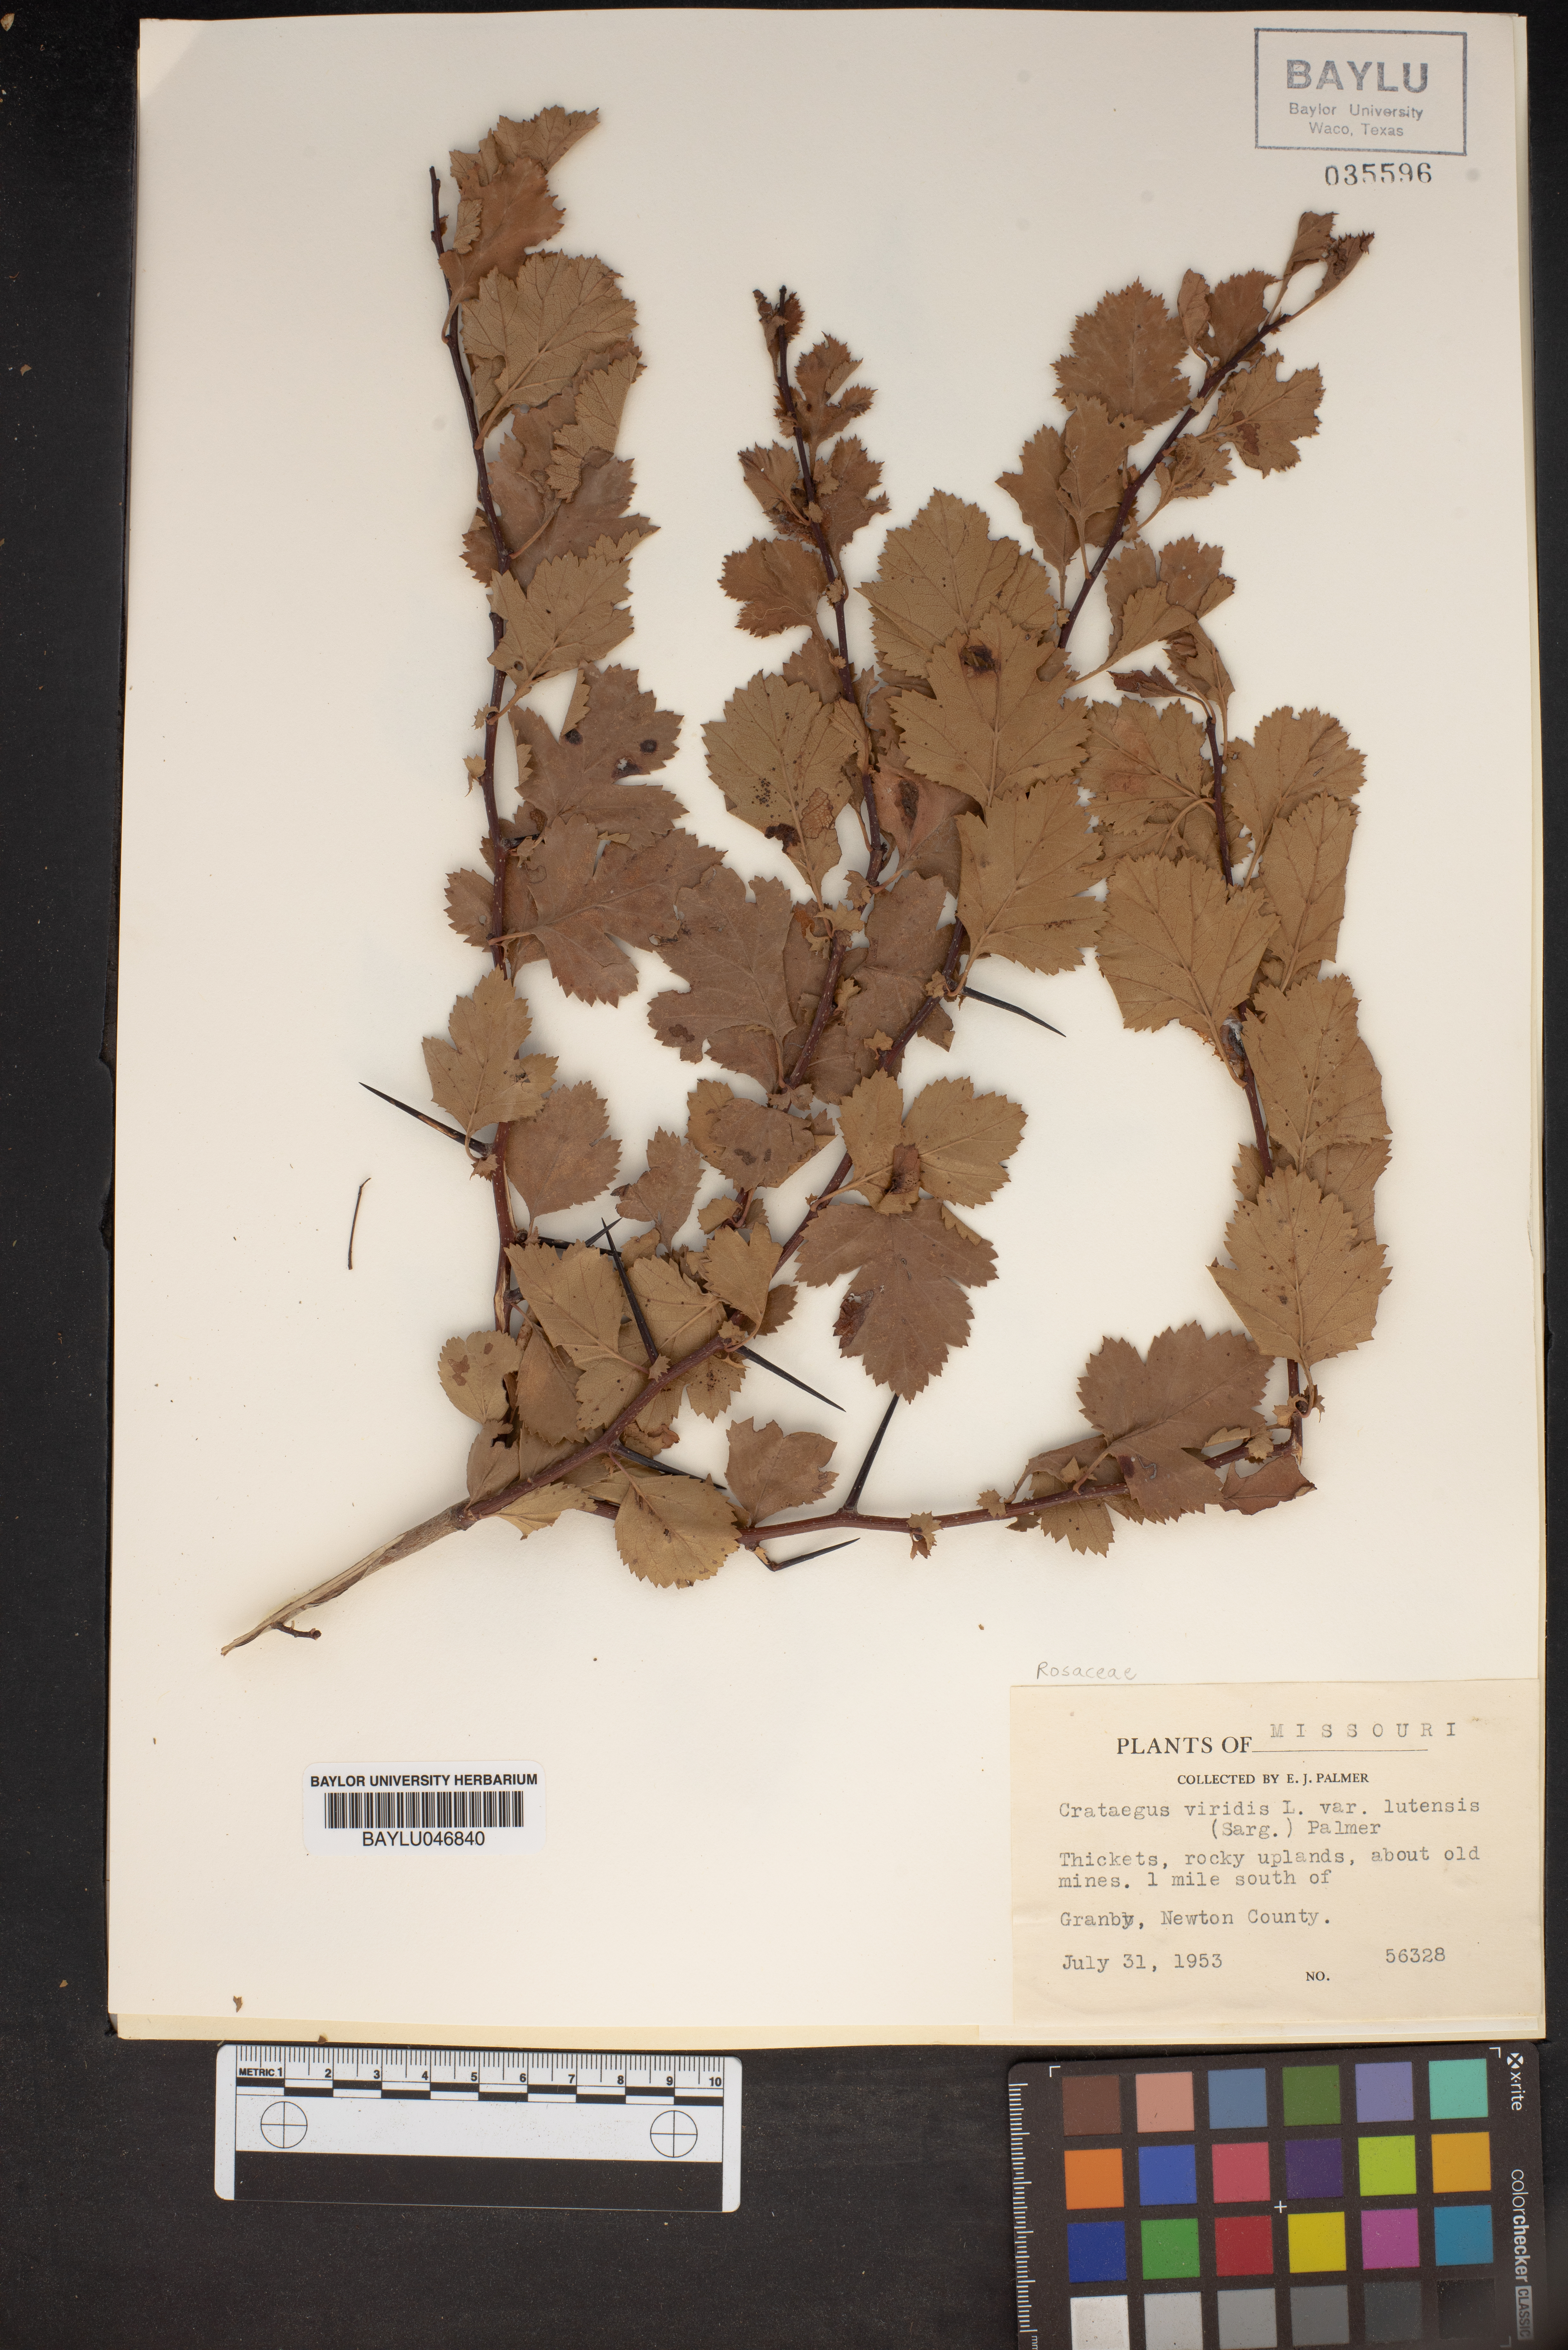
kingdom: Plantae
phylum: Tracheophyta
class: Magnoliopsida
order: Rosales
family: Rosaceae
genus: Crataegus
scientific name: Crataegus viridis
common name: Southernthorn
